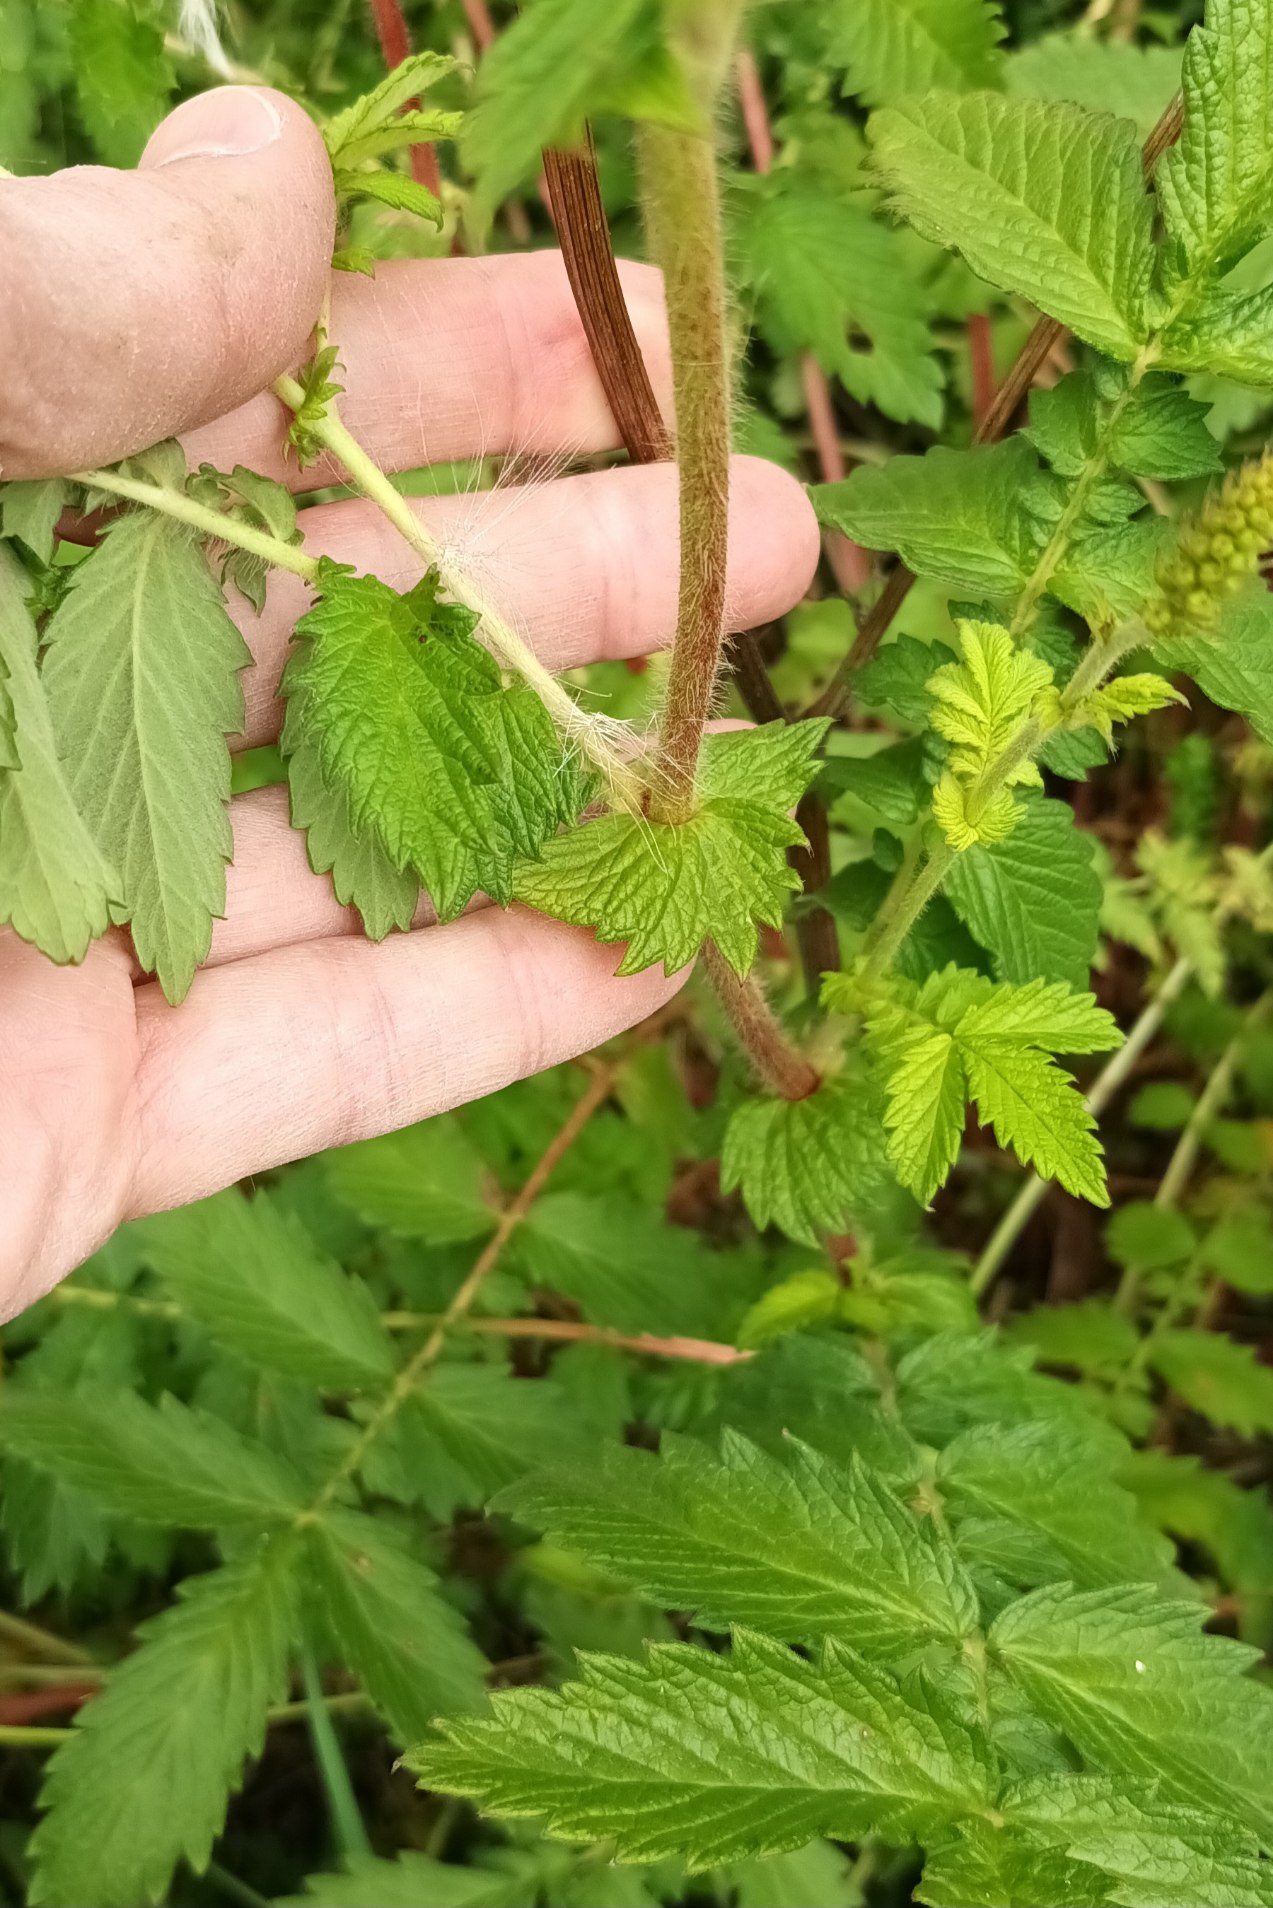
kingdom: Plantae
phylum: Tracheophyta
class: Magnoliopsida
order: Rosales
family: Rosaceae
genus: Agrimonia
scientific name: Agrimonia eupatoria
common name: Almindelig agermåne
